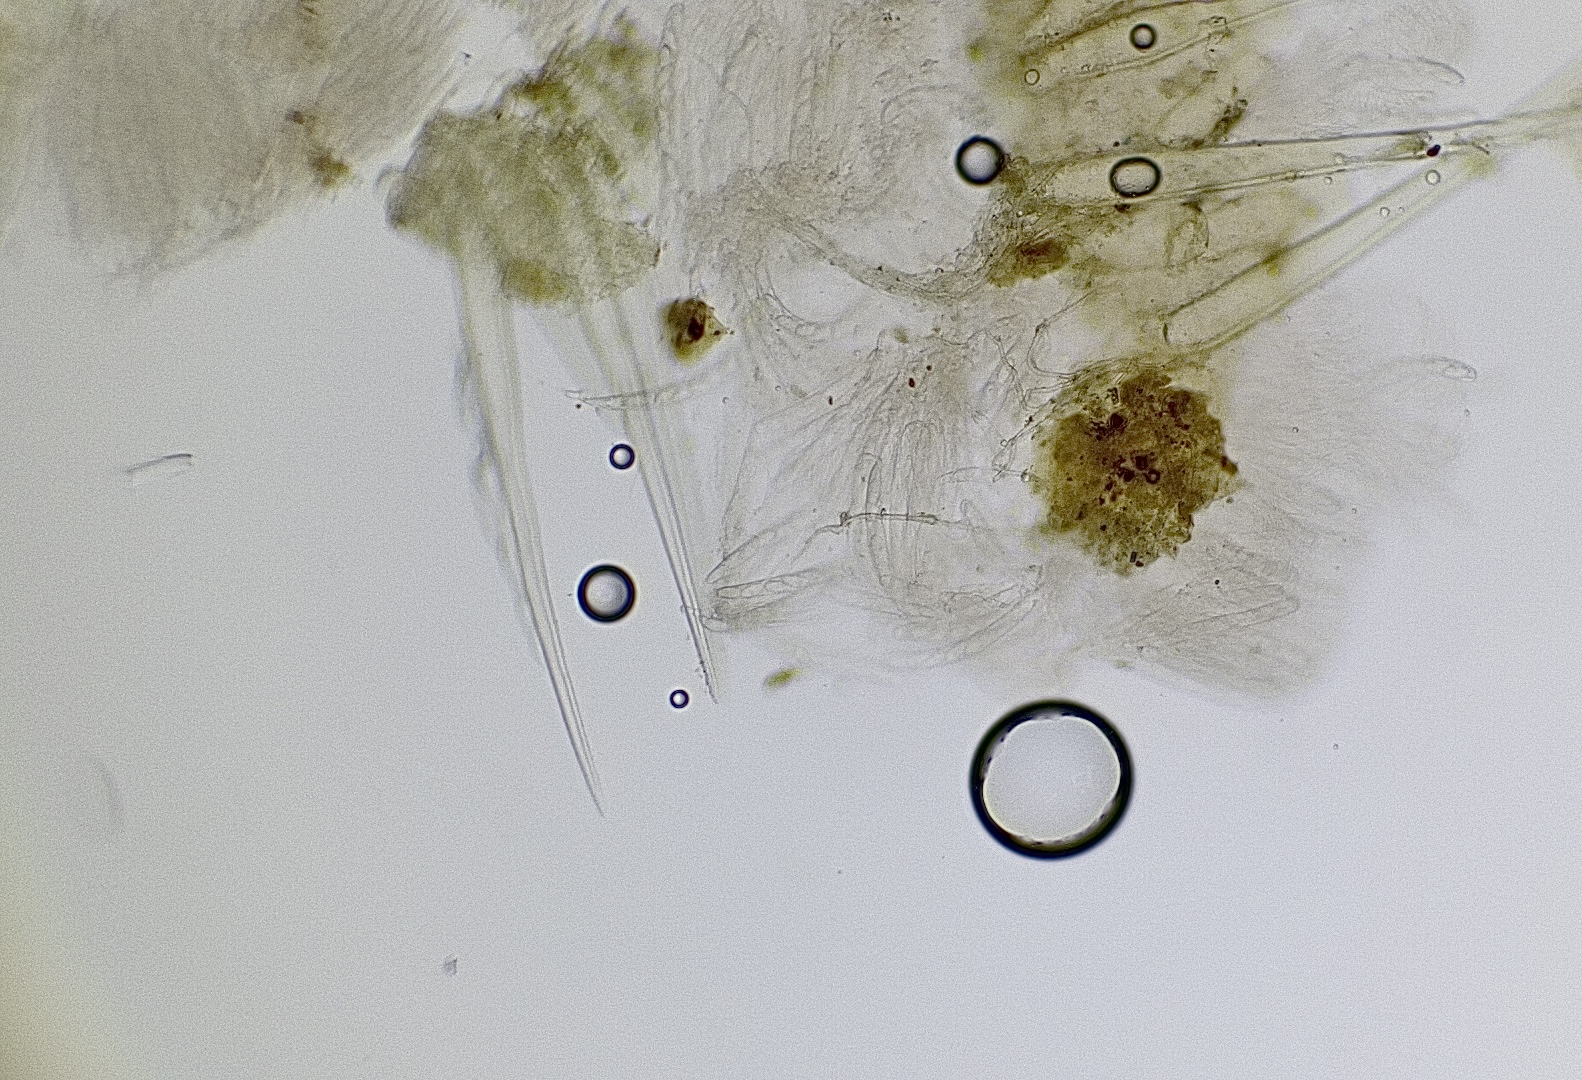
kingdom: Fungi
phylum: Ascomycota
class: Pezizomycetes
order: Pezizales
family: Ascodesmidaceae
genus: Lasiobolus
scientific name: Lasiobolus
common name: øjebæger
